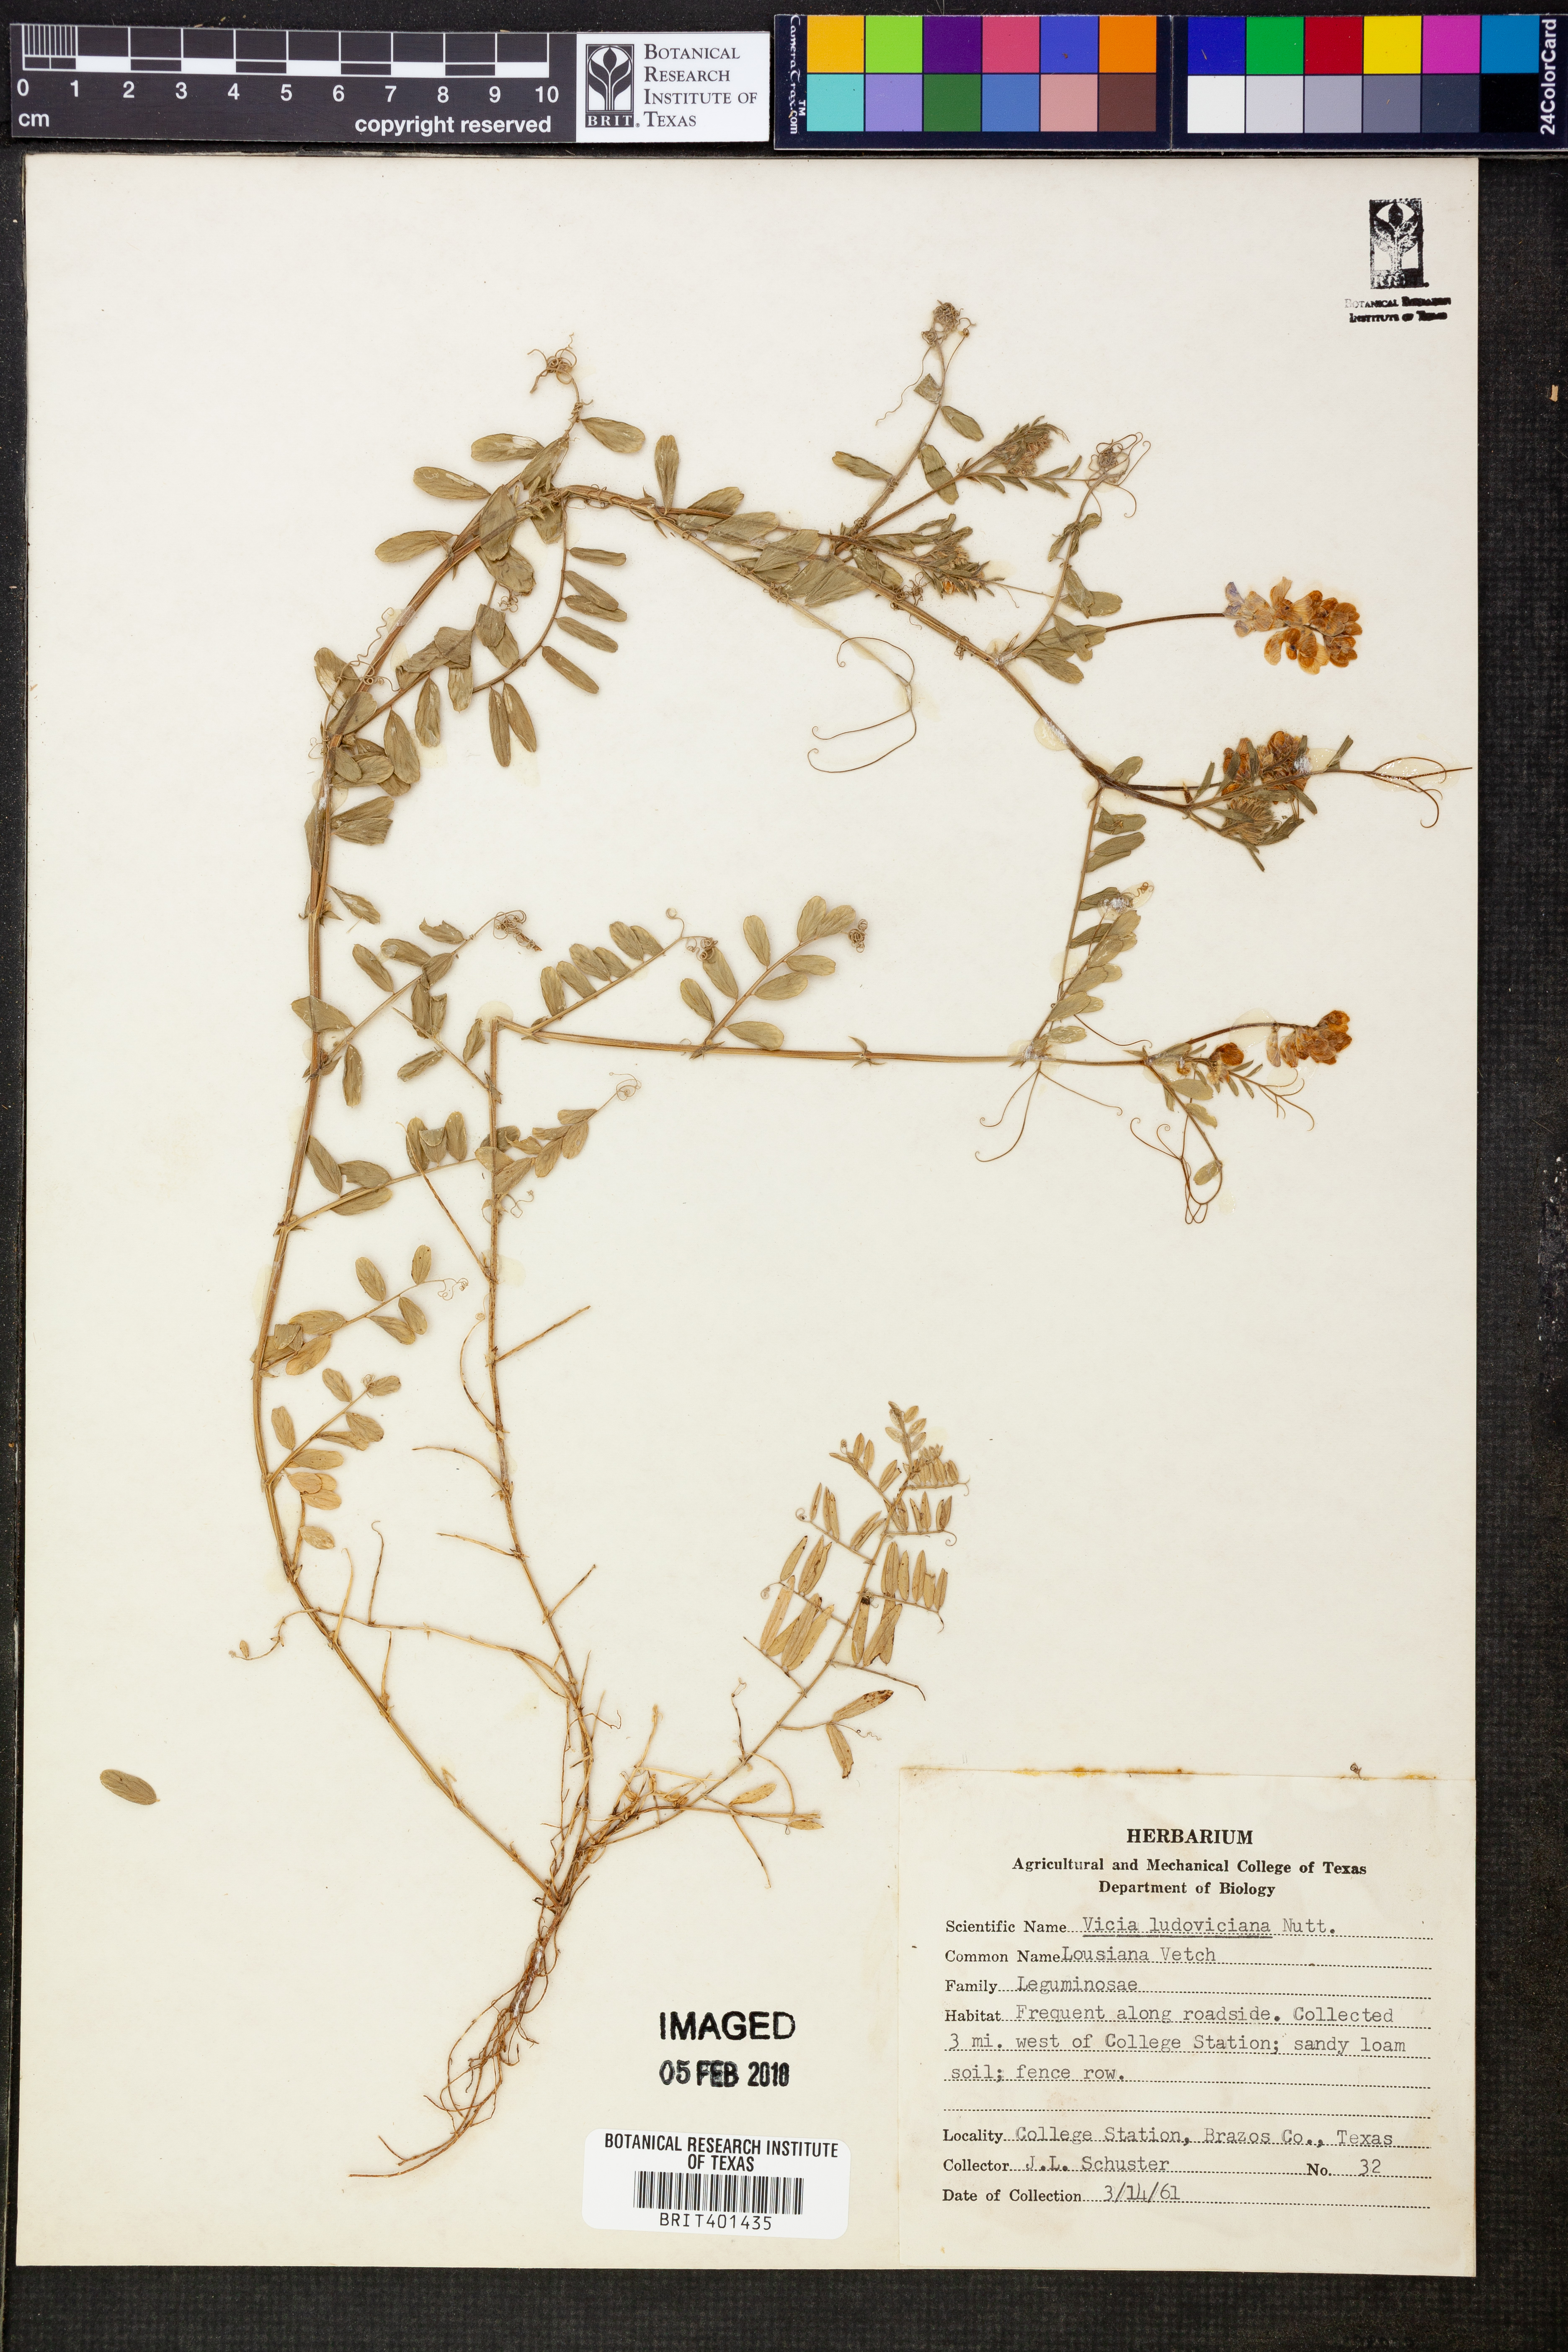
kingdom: Plantae
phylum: Tracheophyta
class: Magnoliopsida
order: Fabales
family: Fabaceae
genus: Vicia
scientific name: Vicia ludoviciana
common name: Louisiana vetch
